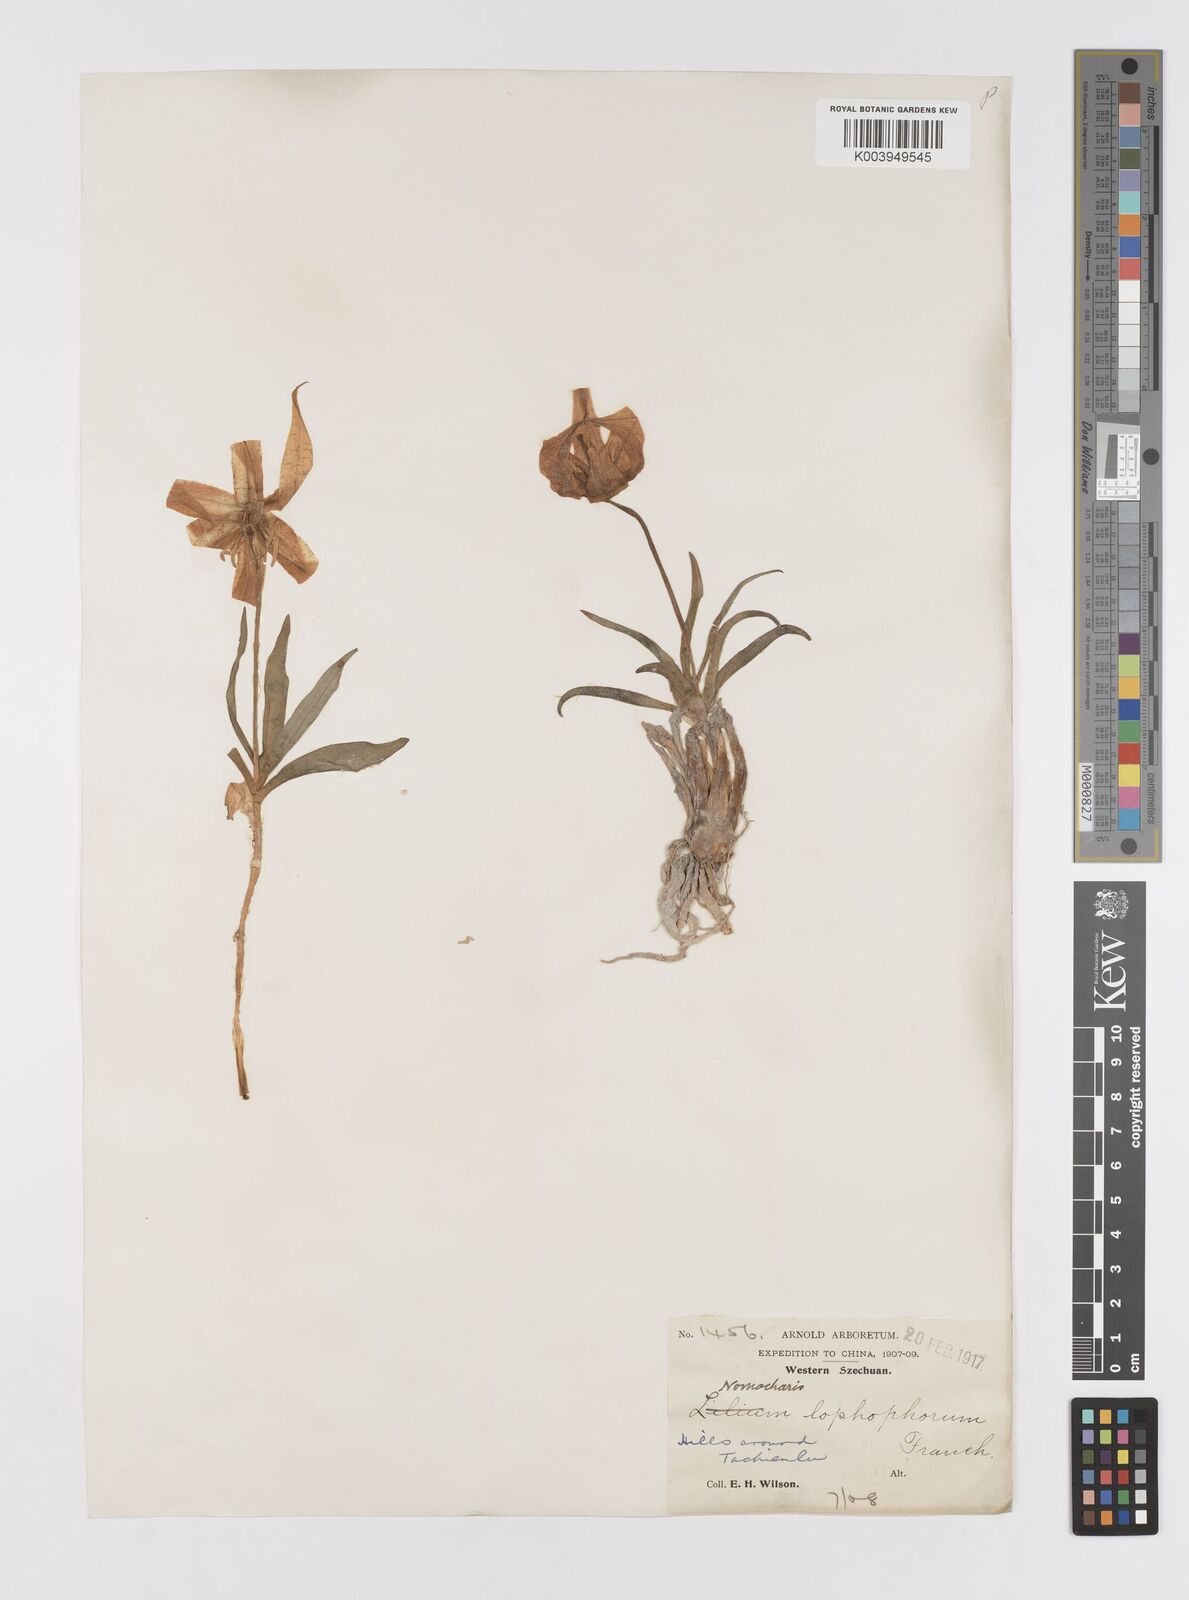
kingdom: Plantae
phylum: Tracheophyta
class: Liliopsida
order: Liliales
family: Liliaceae
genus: Lilium
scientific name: Lilium lophophorum
